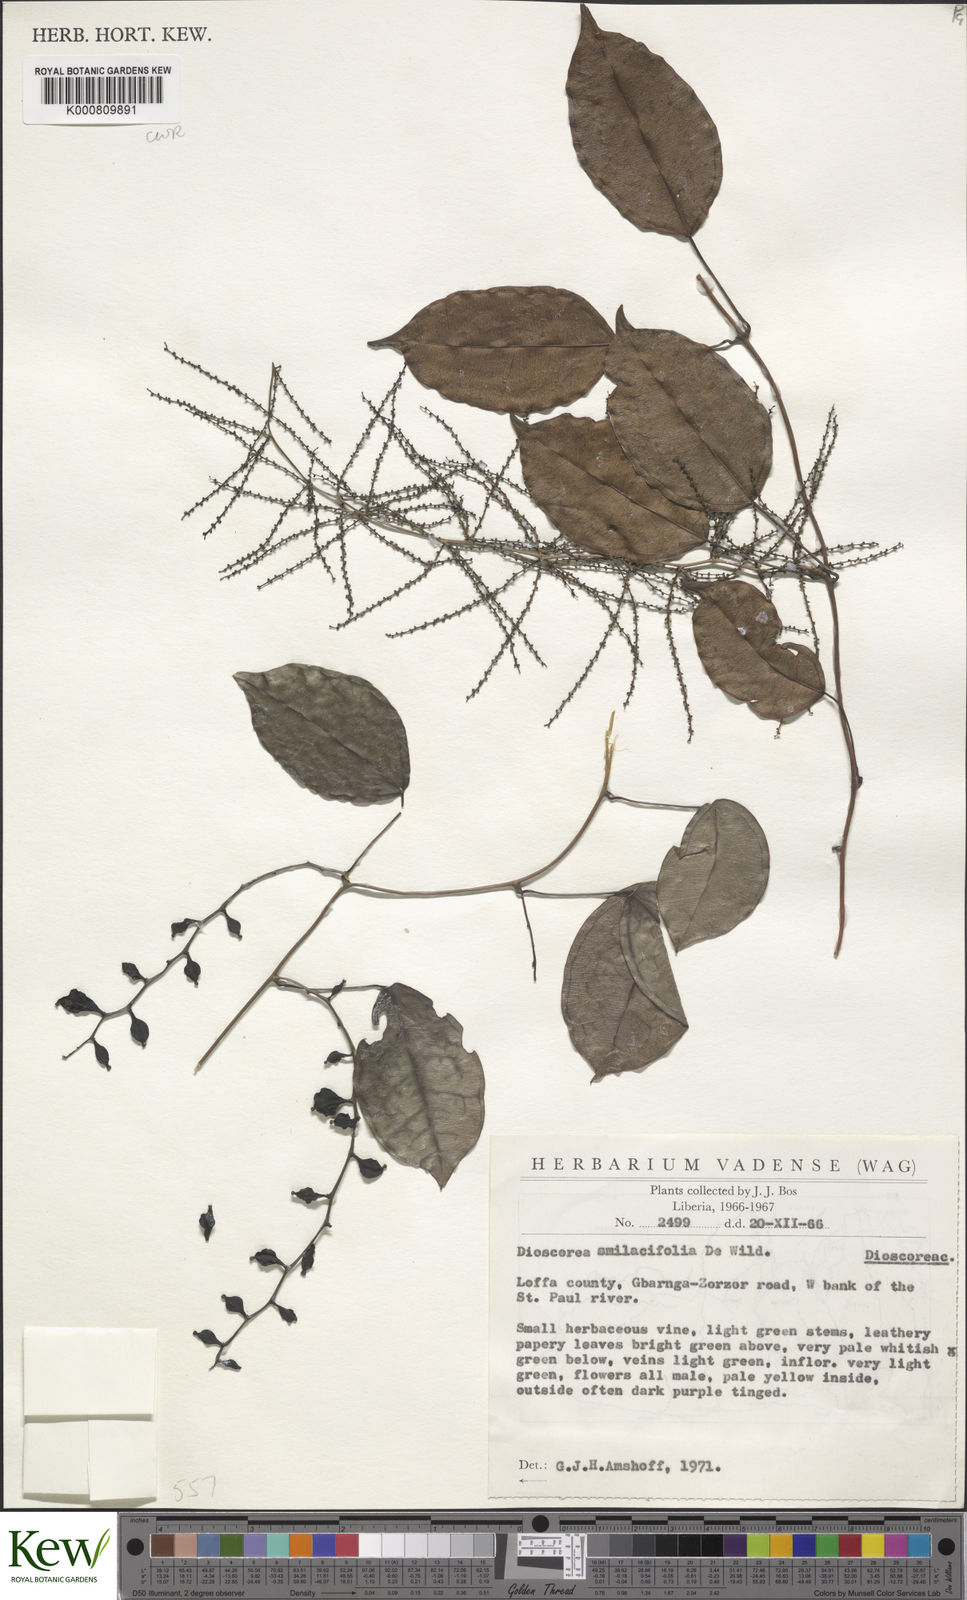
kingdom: Plantae
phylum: Tracheophyta
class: Liliopsida
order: Dioscoreales
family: Dioscoreaceae
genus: Dioscorea
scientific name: Dioscorea smilacifolia
